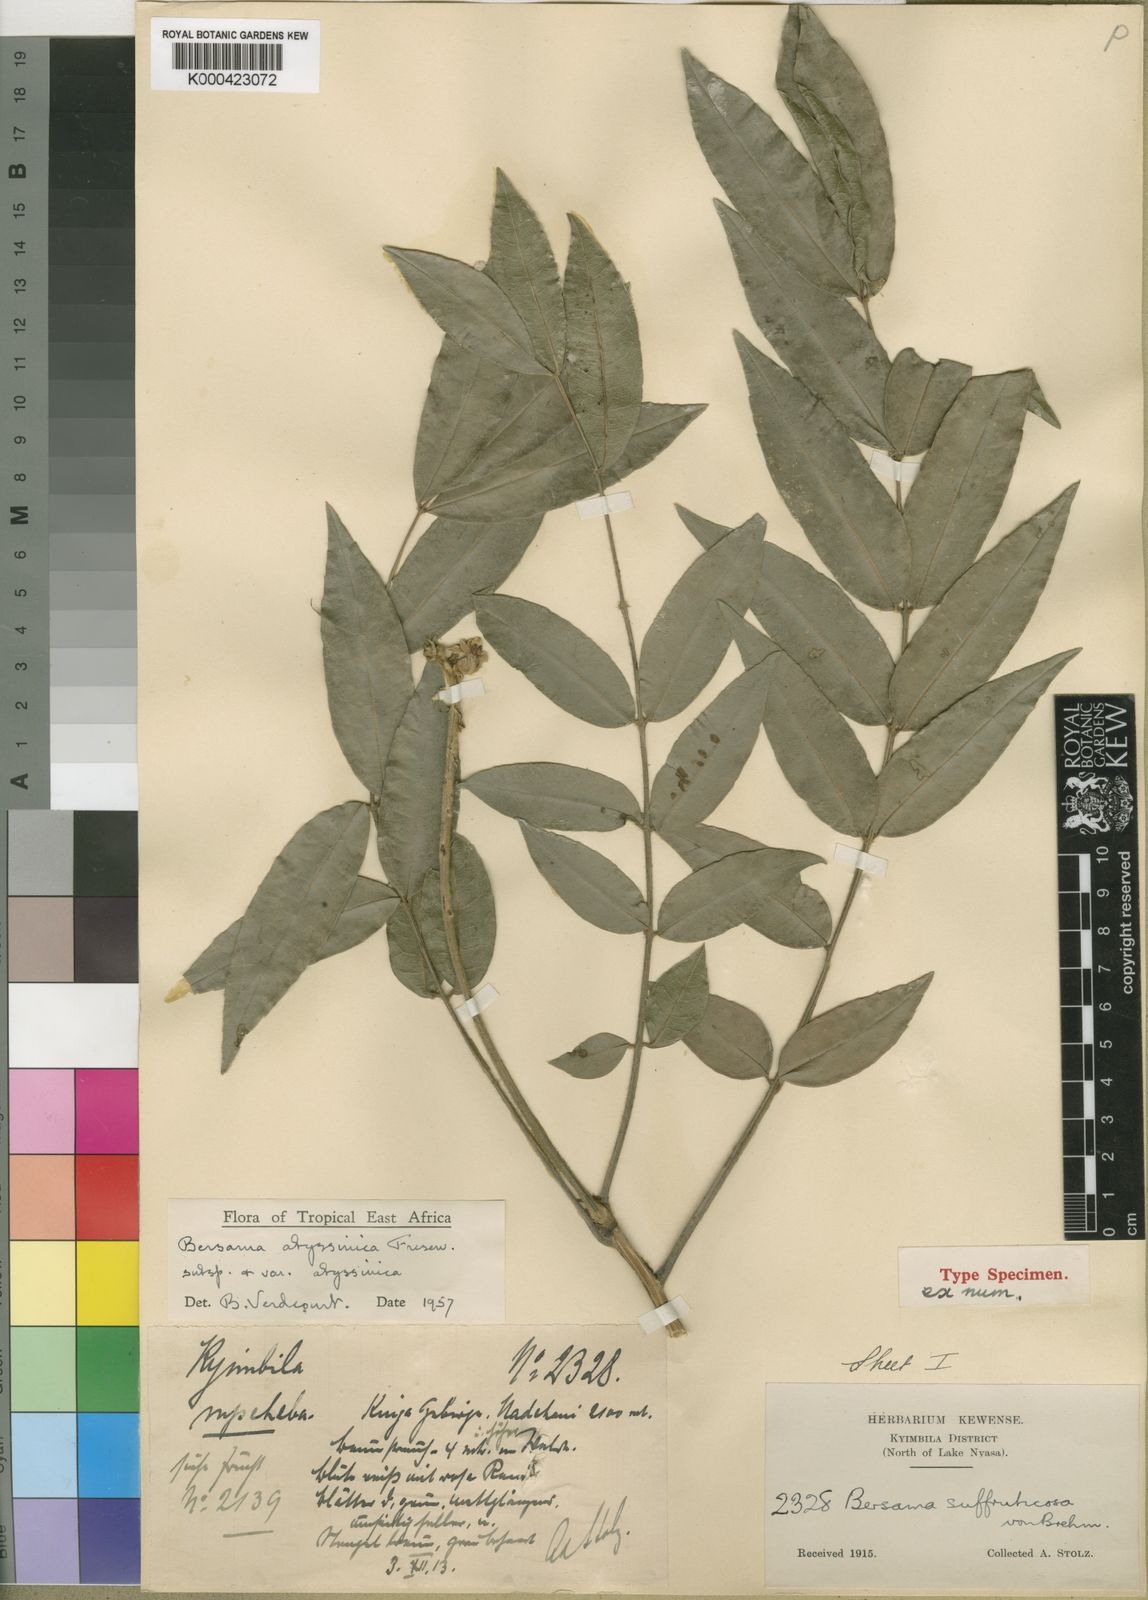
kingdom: Plantae
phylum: Tracheophyta
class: Magnoliopsida
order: Geraniales
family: Melianthaceae
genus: Bersama
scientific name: Bersama abyssinica
